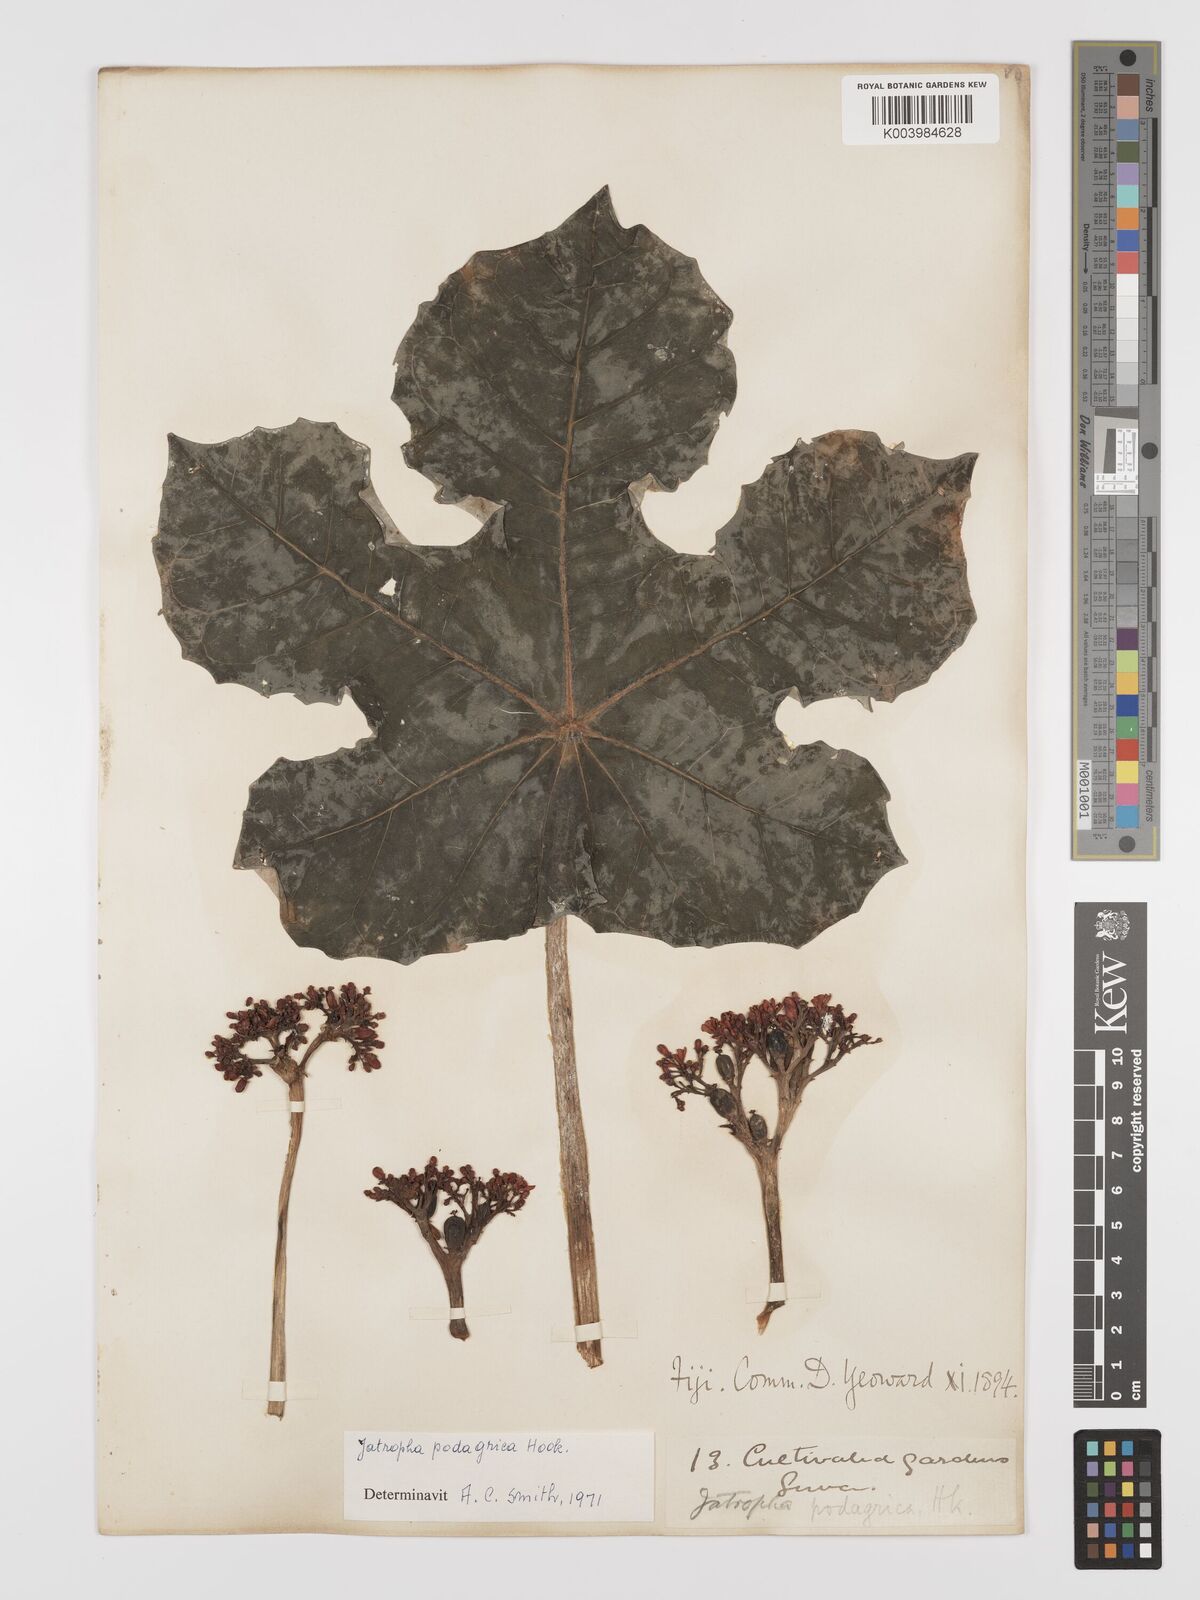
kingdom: Plantae
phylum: Tracheophyta
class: Magnoliopsida
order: Malpighiales
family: Euphorbiaceae
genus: Jatropha
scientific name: Jatropha podagrica
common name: Gout stalk
